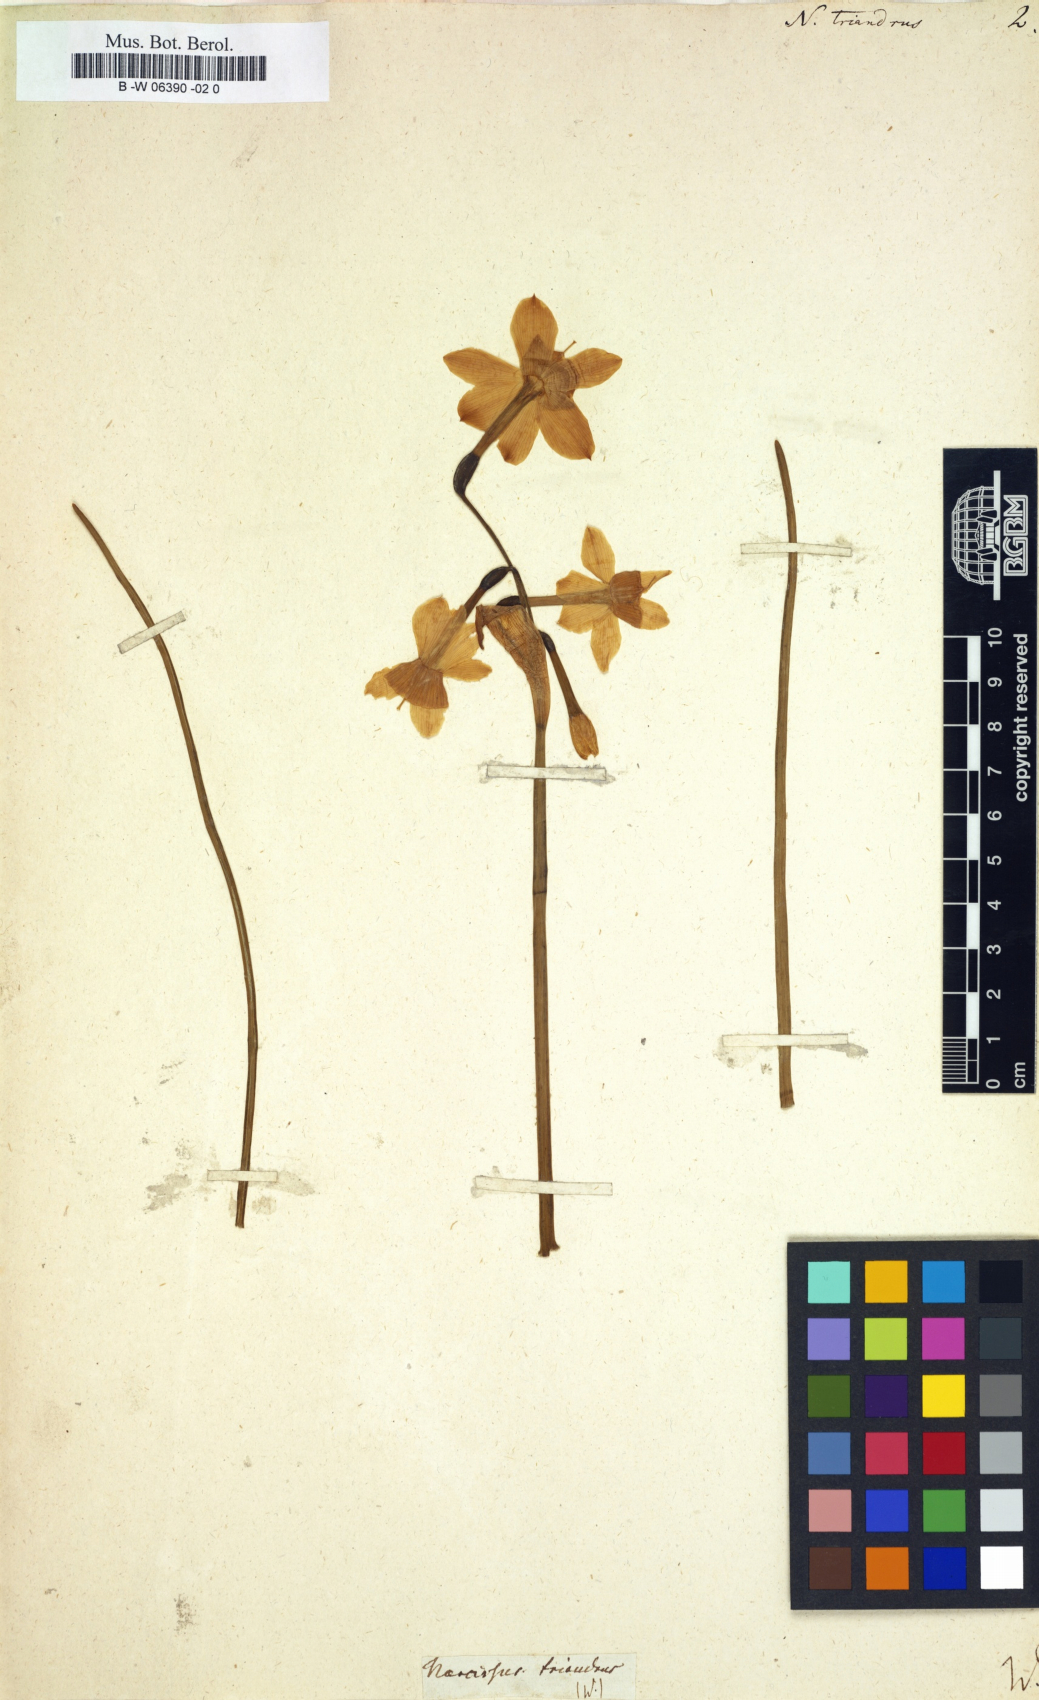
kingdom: Plantae
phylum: Tracheophyta
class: Liliopsida
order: Asparagales
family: Amaryllidaceae
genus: Narcissus
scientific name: Narcissus triandrus
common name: Angel's-tears
